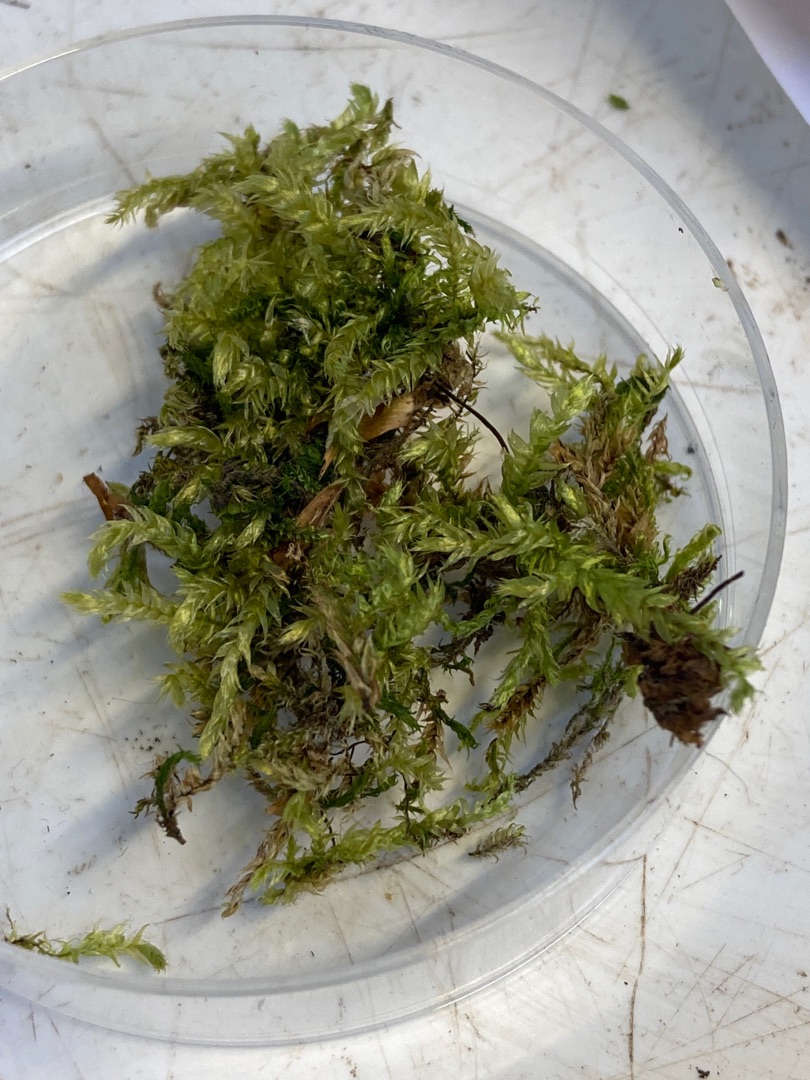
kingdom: Plantae
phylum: Bryophyta
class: Bryopsida
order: Hypnales
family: Brachytheciaceae
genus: Brachythecium
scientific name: Brachythecium rutabulum
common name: Almindelig kortkapsel
